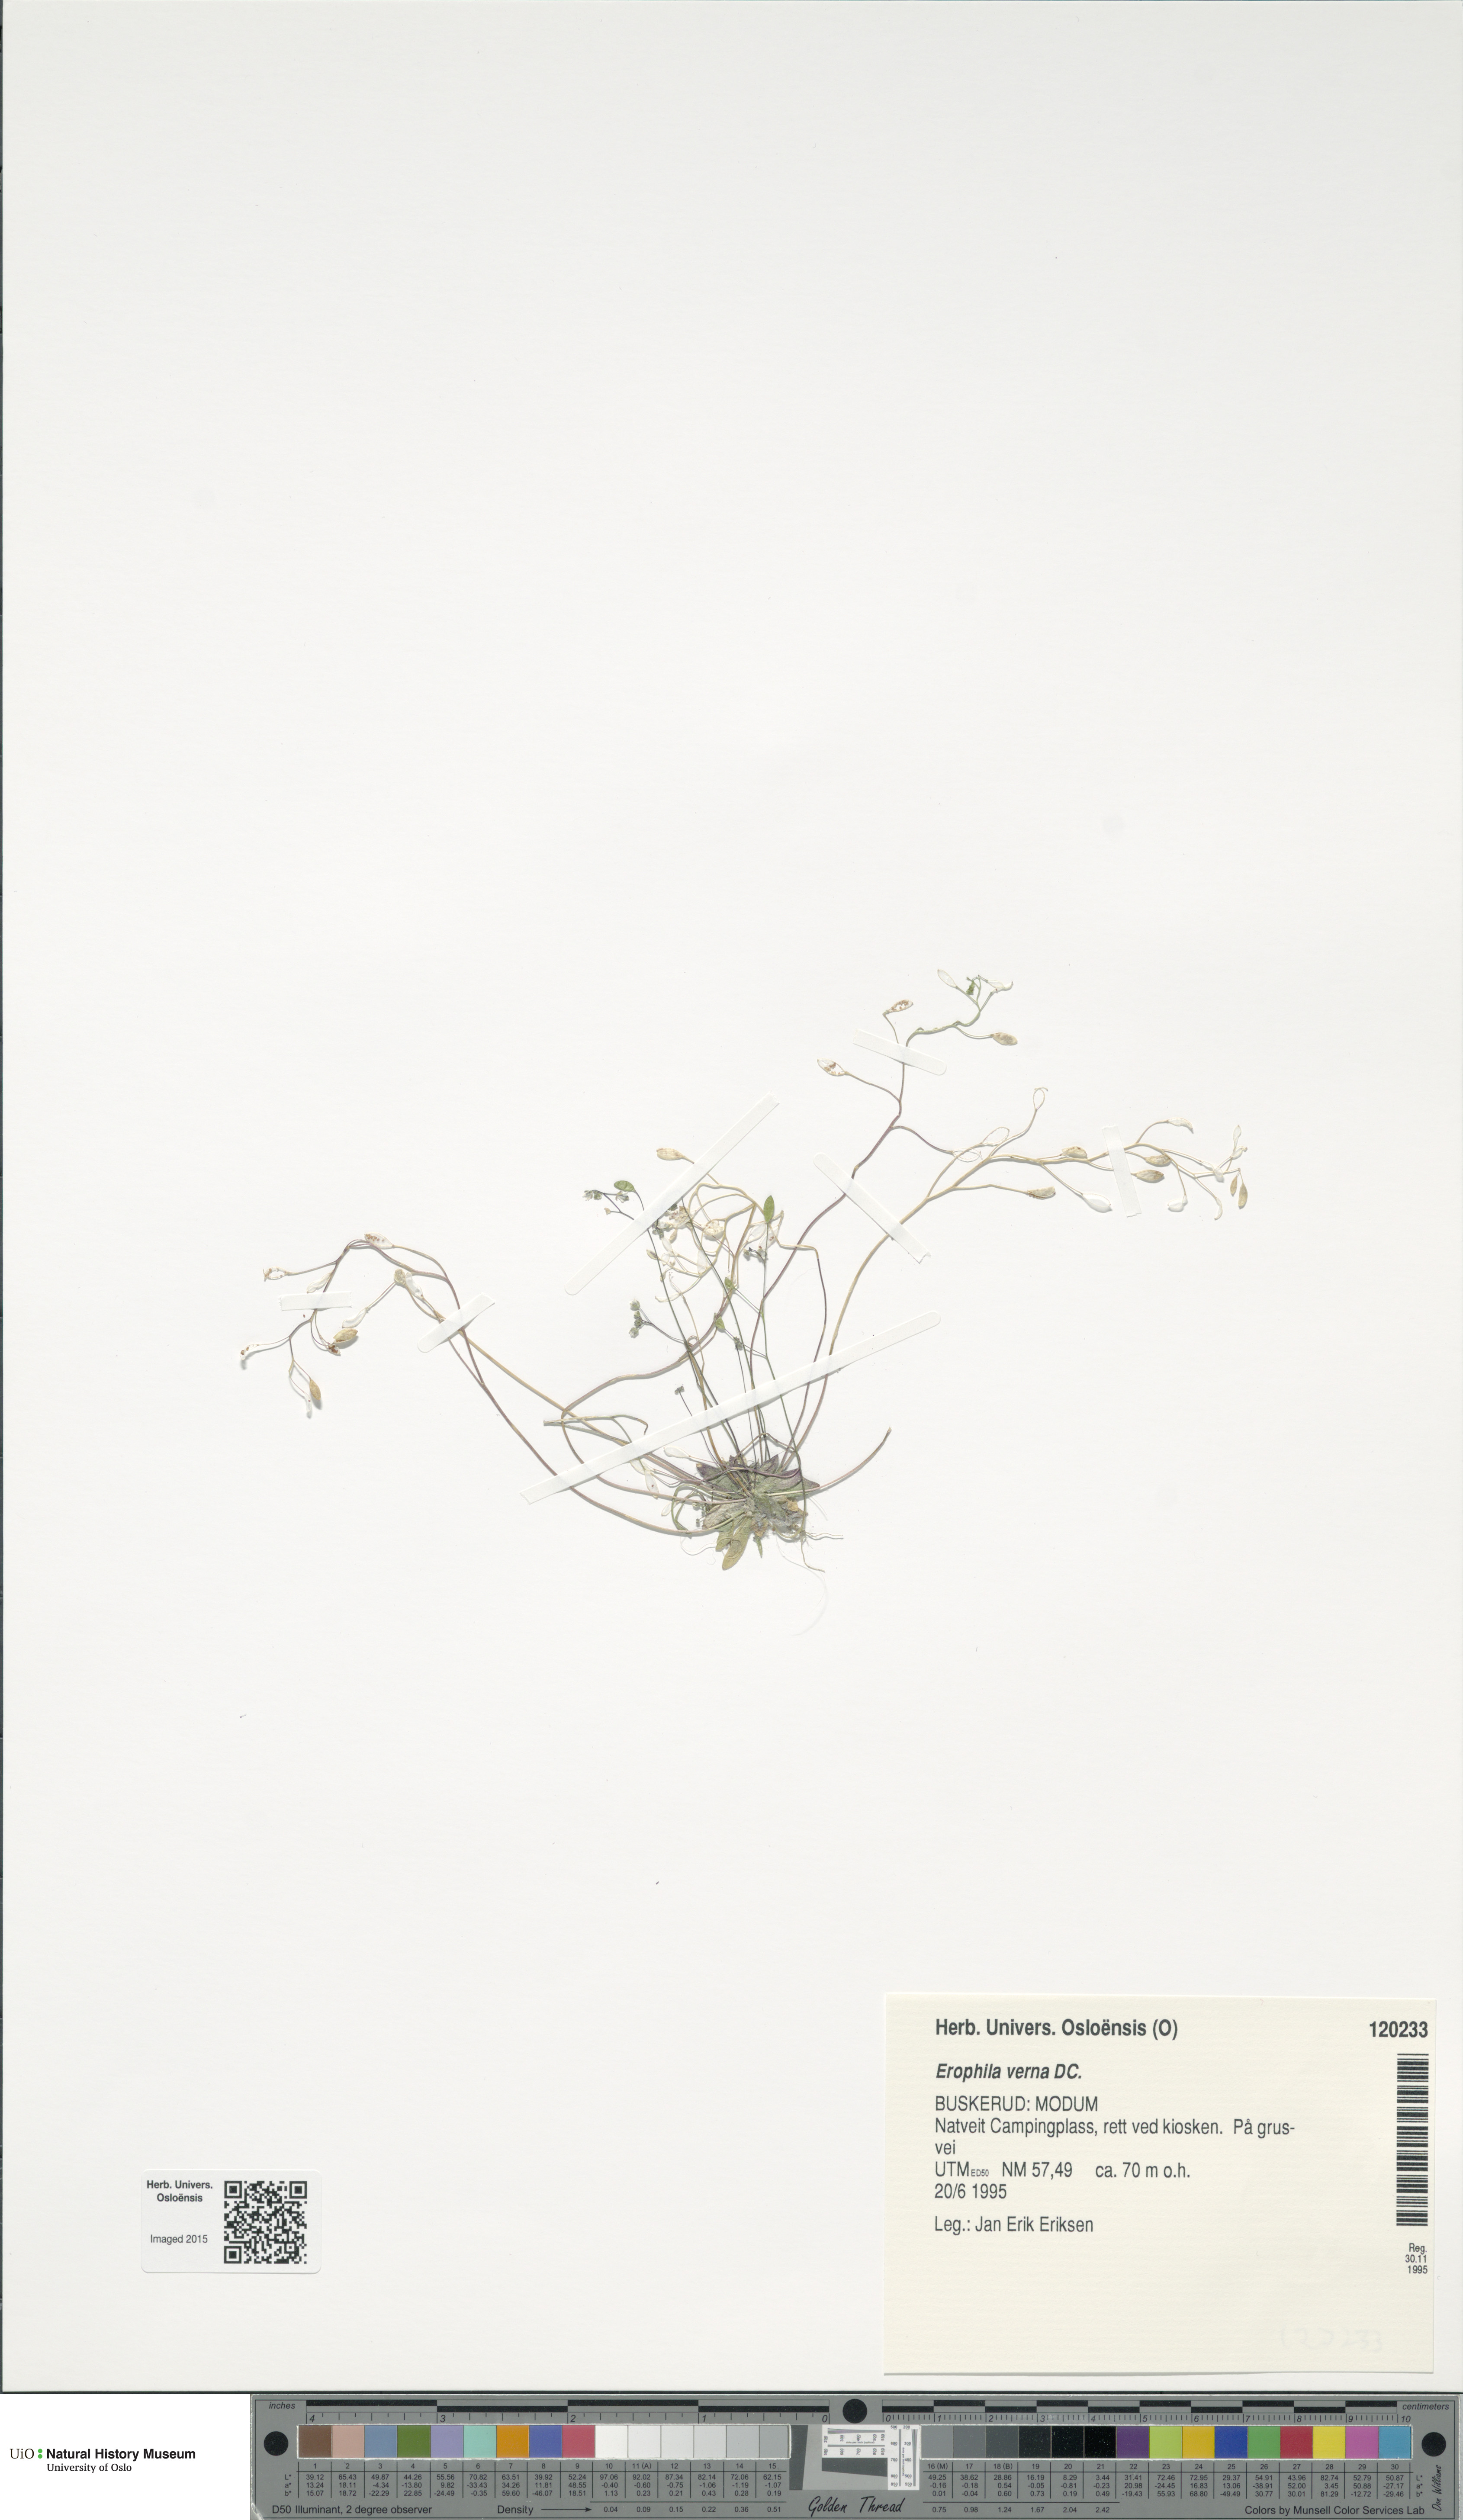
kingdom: Plantae
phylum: Tracheophyta
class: Magnoliopsida
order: Brassicales
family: Brassicaceae
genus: Draba
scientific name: Draba verna
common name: Spring draba
